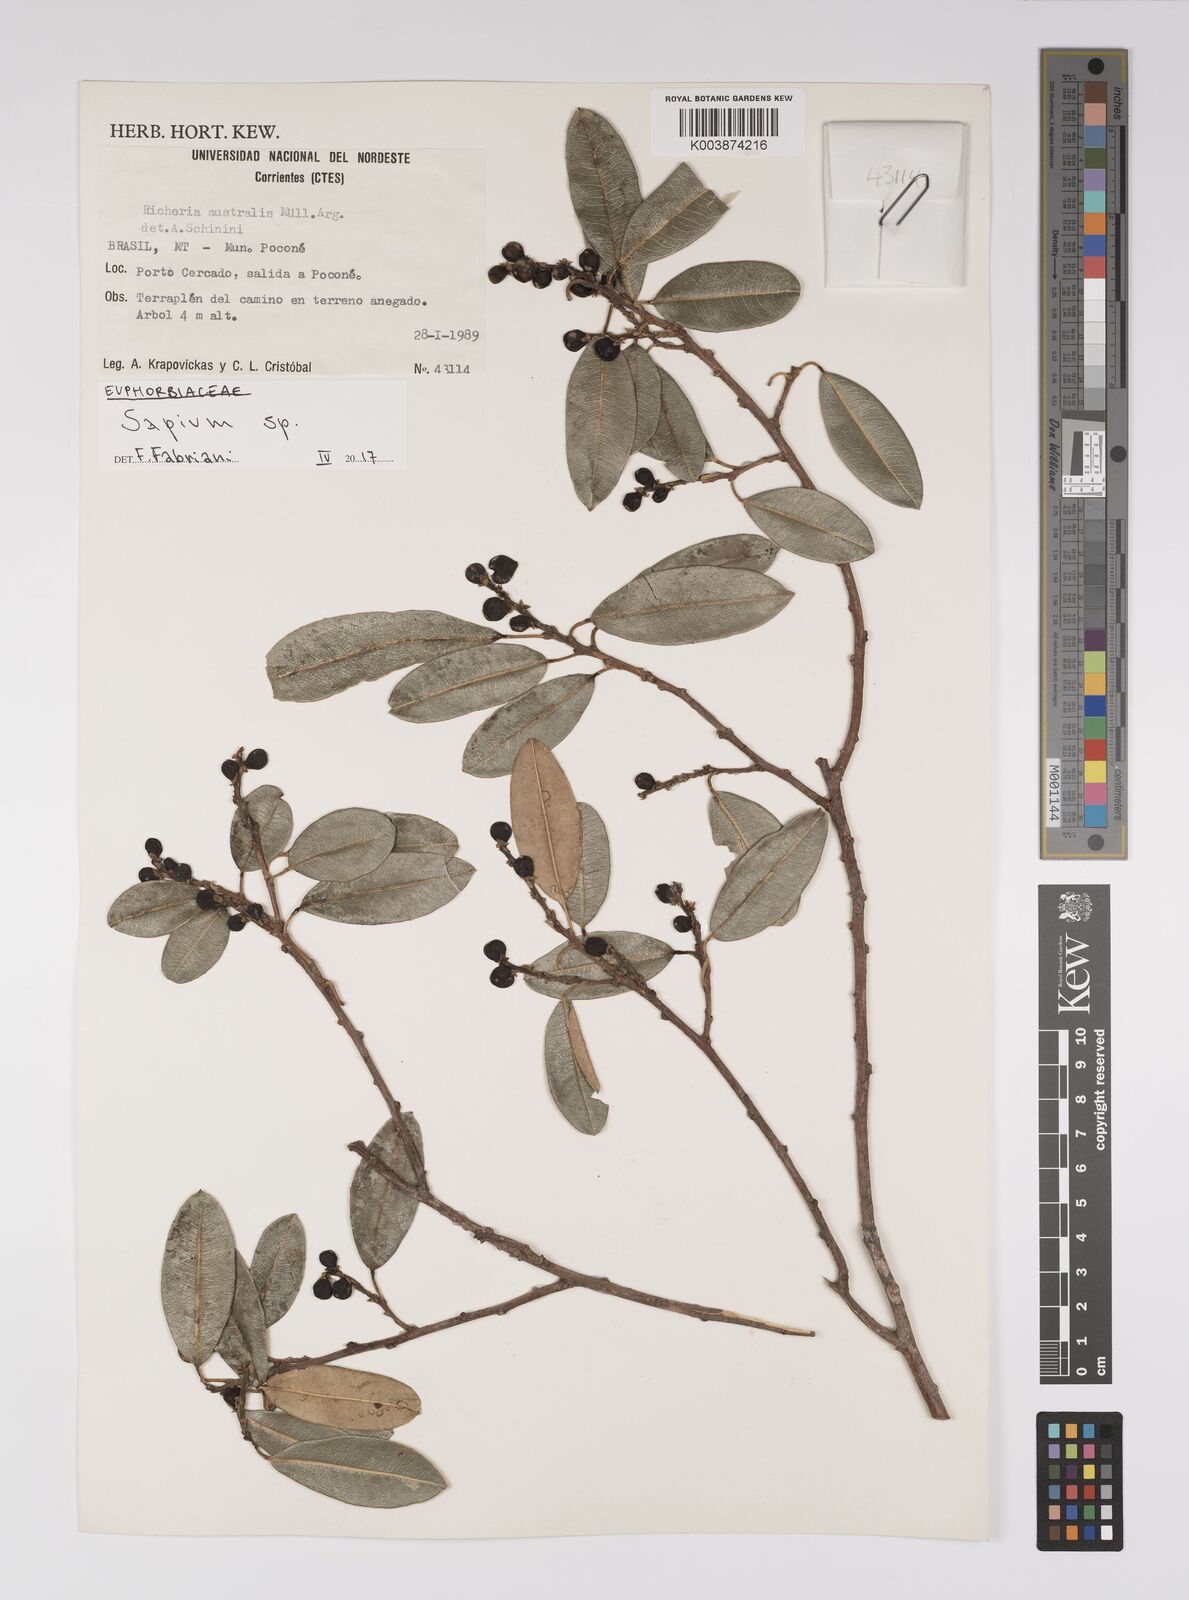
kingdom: Plantae
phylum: Tracheophyta
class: Magnoliopsida
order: Malpighiales
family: Euphorbiaceae
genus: Sapium
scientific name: Sapium
